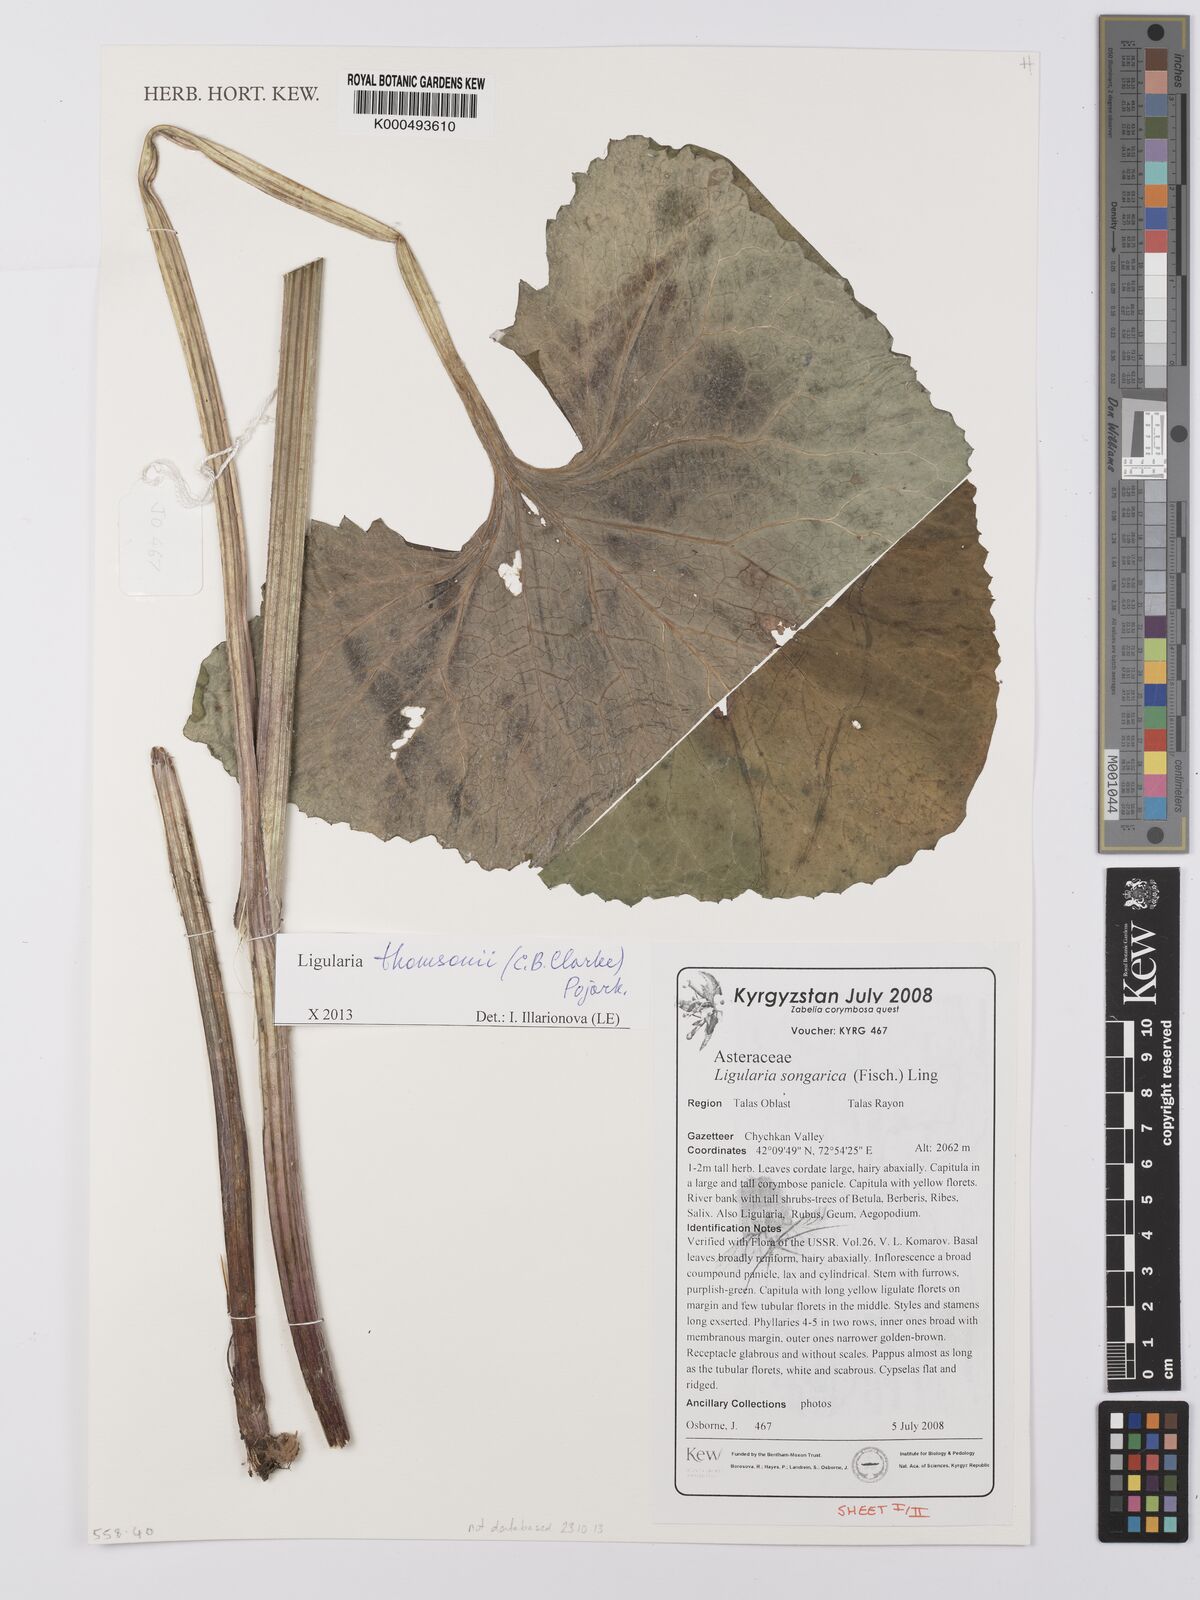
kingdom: Plantae
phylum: Tracheophyta
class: Magnoliopsida
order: Asterales
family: Asteraceae
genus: Vickifunkia
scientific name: Vickifunkia thomsonii
